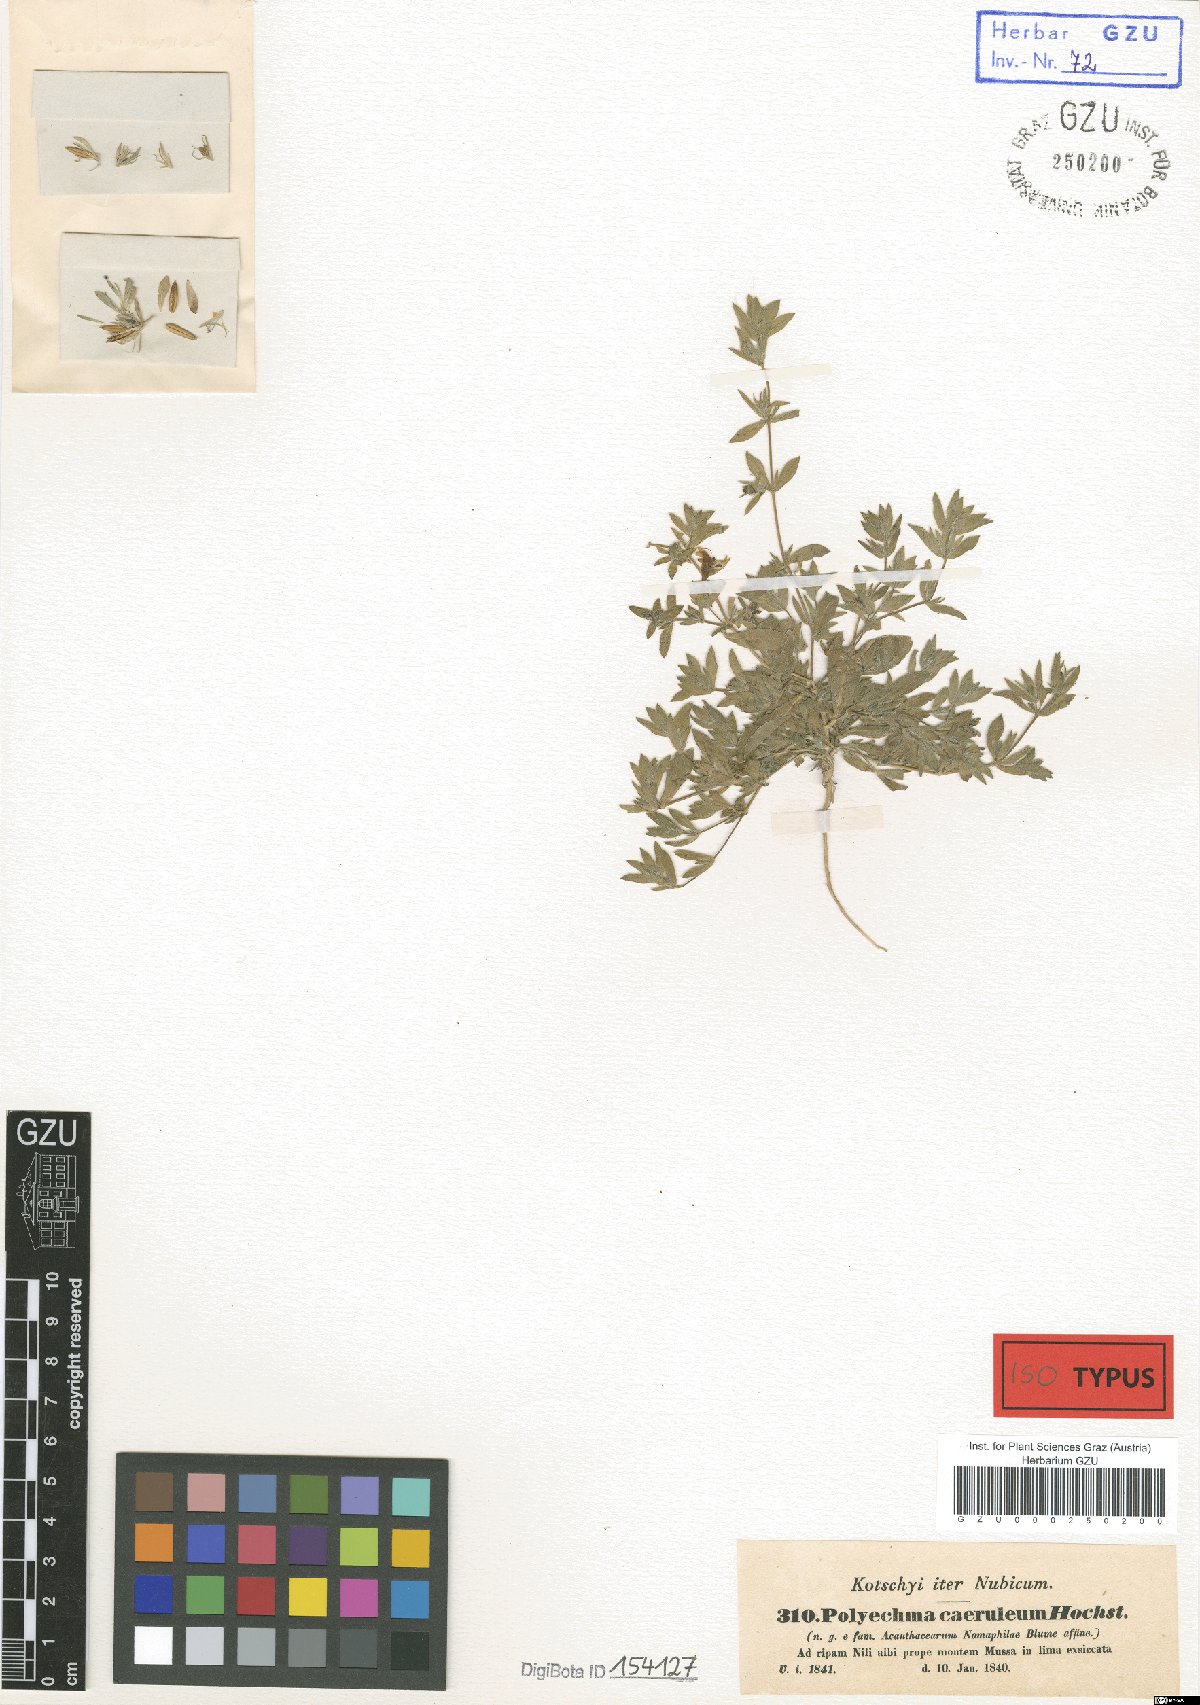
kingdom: Plantae
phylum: Tracheophyta
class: Magnoliopsida
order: Lamiales
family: Acanthaceae
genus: Hygrophila
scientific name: Hygrophila caerulea
